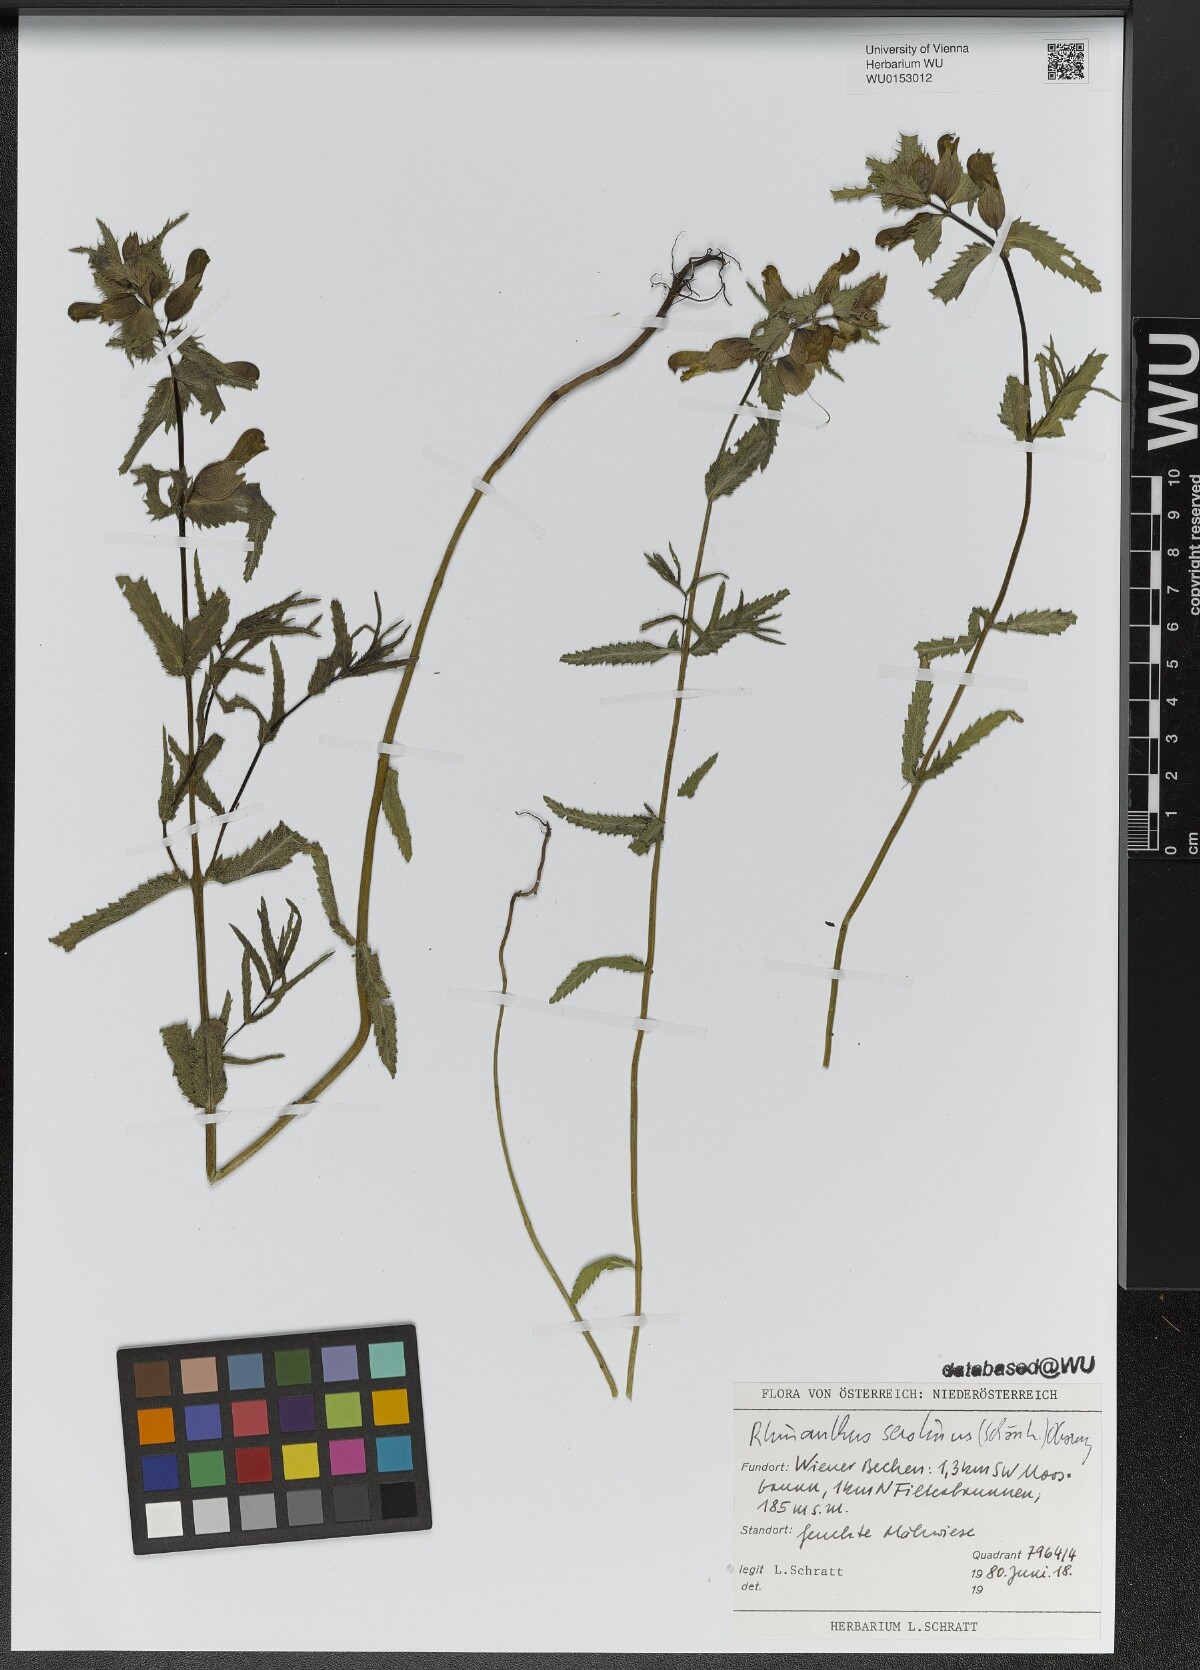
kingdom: Plantae
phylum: Tracheophyta
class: Magnoliopsida
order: Lamiales
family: Orobanchaceae
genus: Rhinanthus
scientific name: Rhinanthus serotinus
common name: Late-flowering yellow rattle
